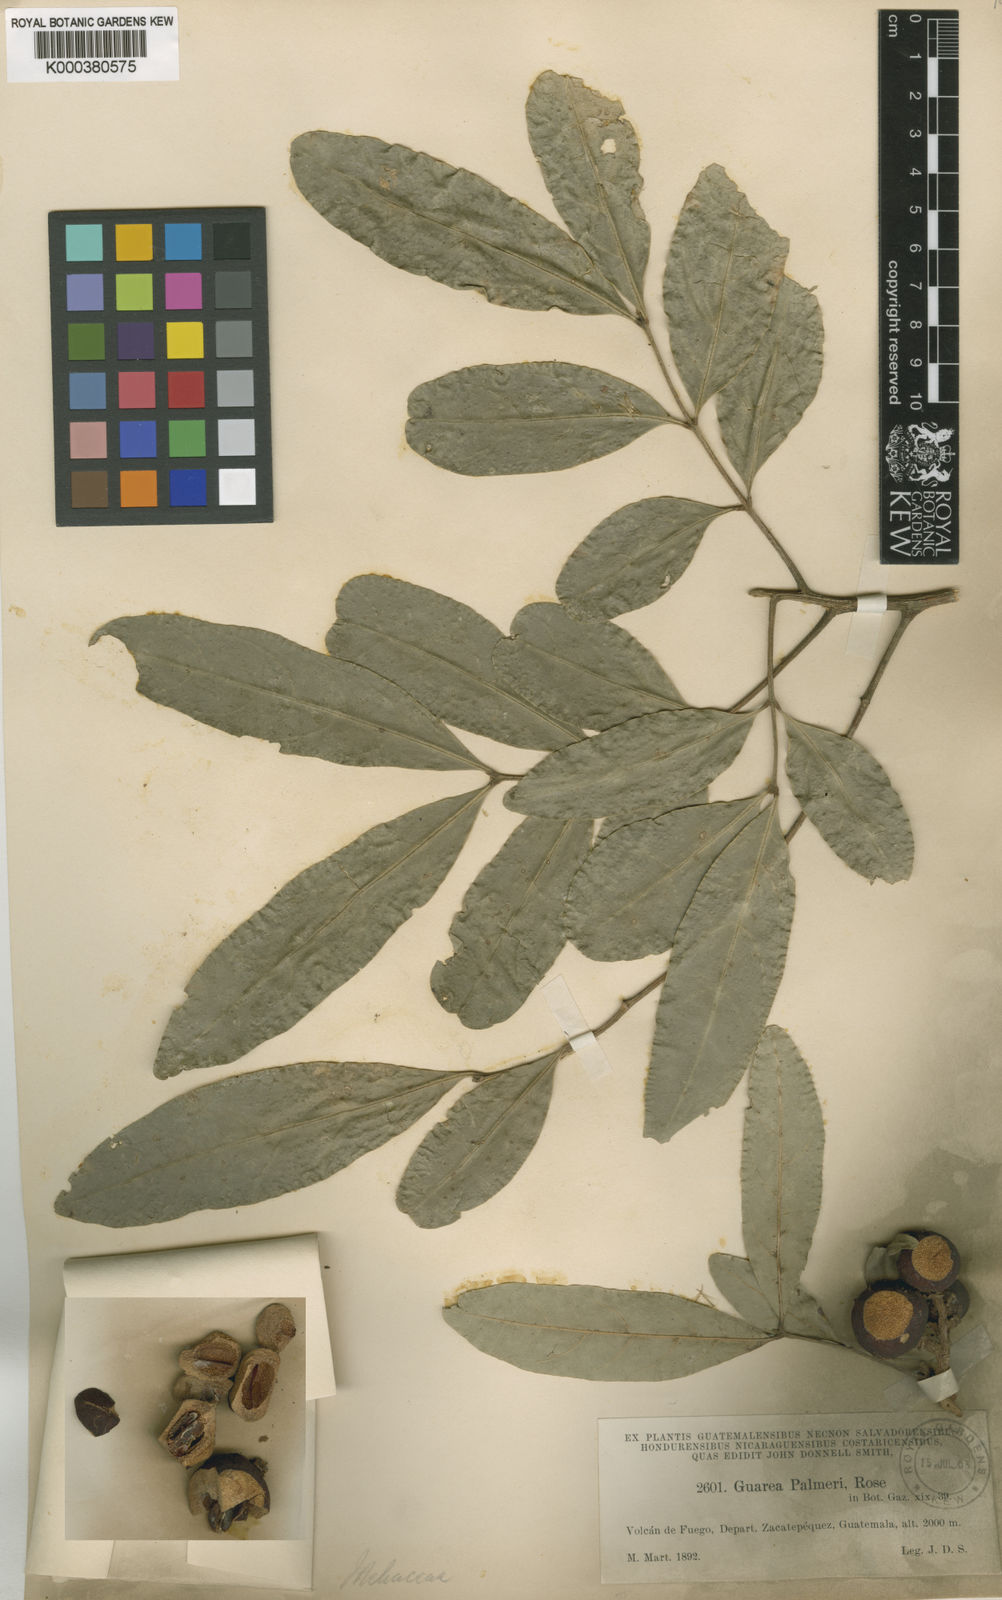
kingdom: Plantae
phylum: Tracheophyta
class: Magnoliopsida
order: Sapindales
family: Meliaceae
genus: Guarea
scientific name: Guarea glabra
